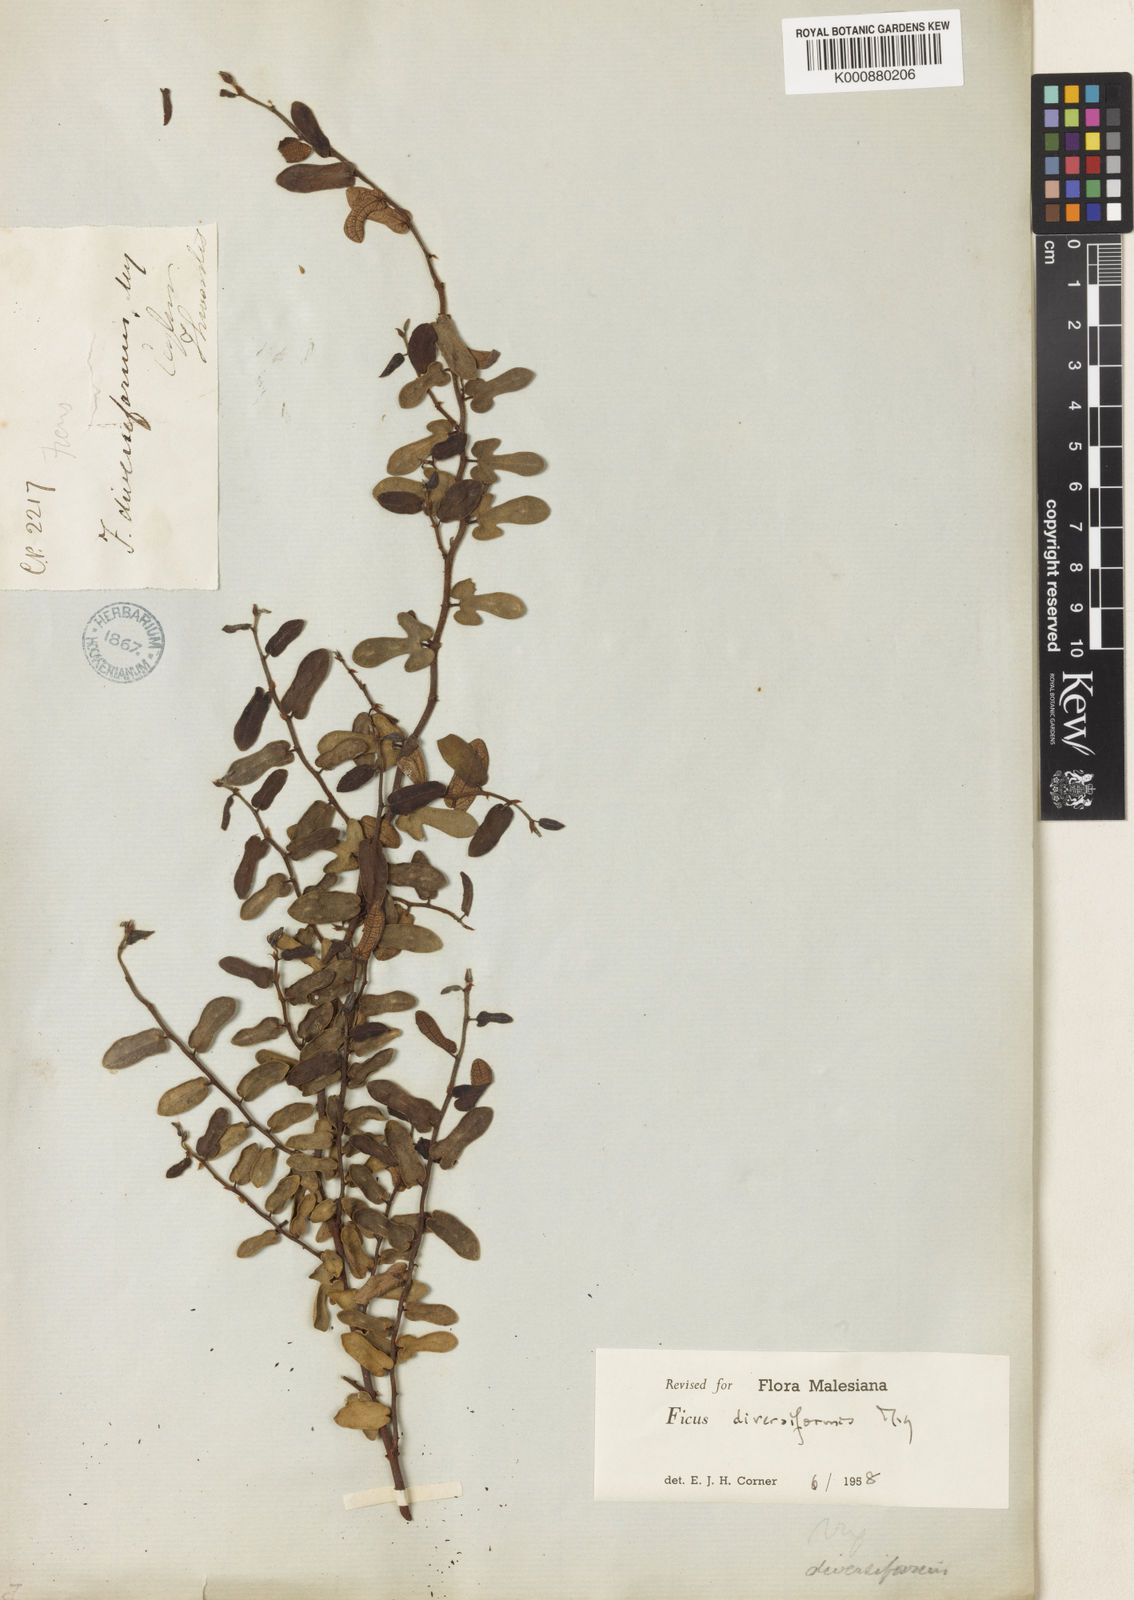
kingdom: Plantae
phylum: Tracheophyta
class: Magnoliopsida
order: Rosales
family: Moraceae
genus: Ficus
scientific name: Ficus diversiformis
